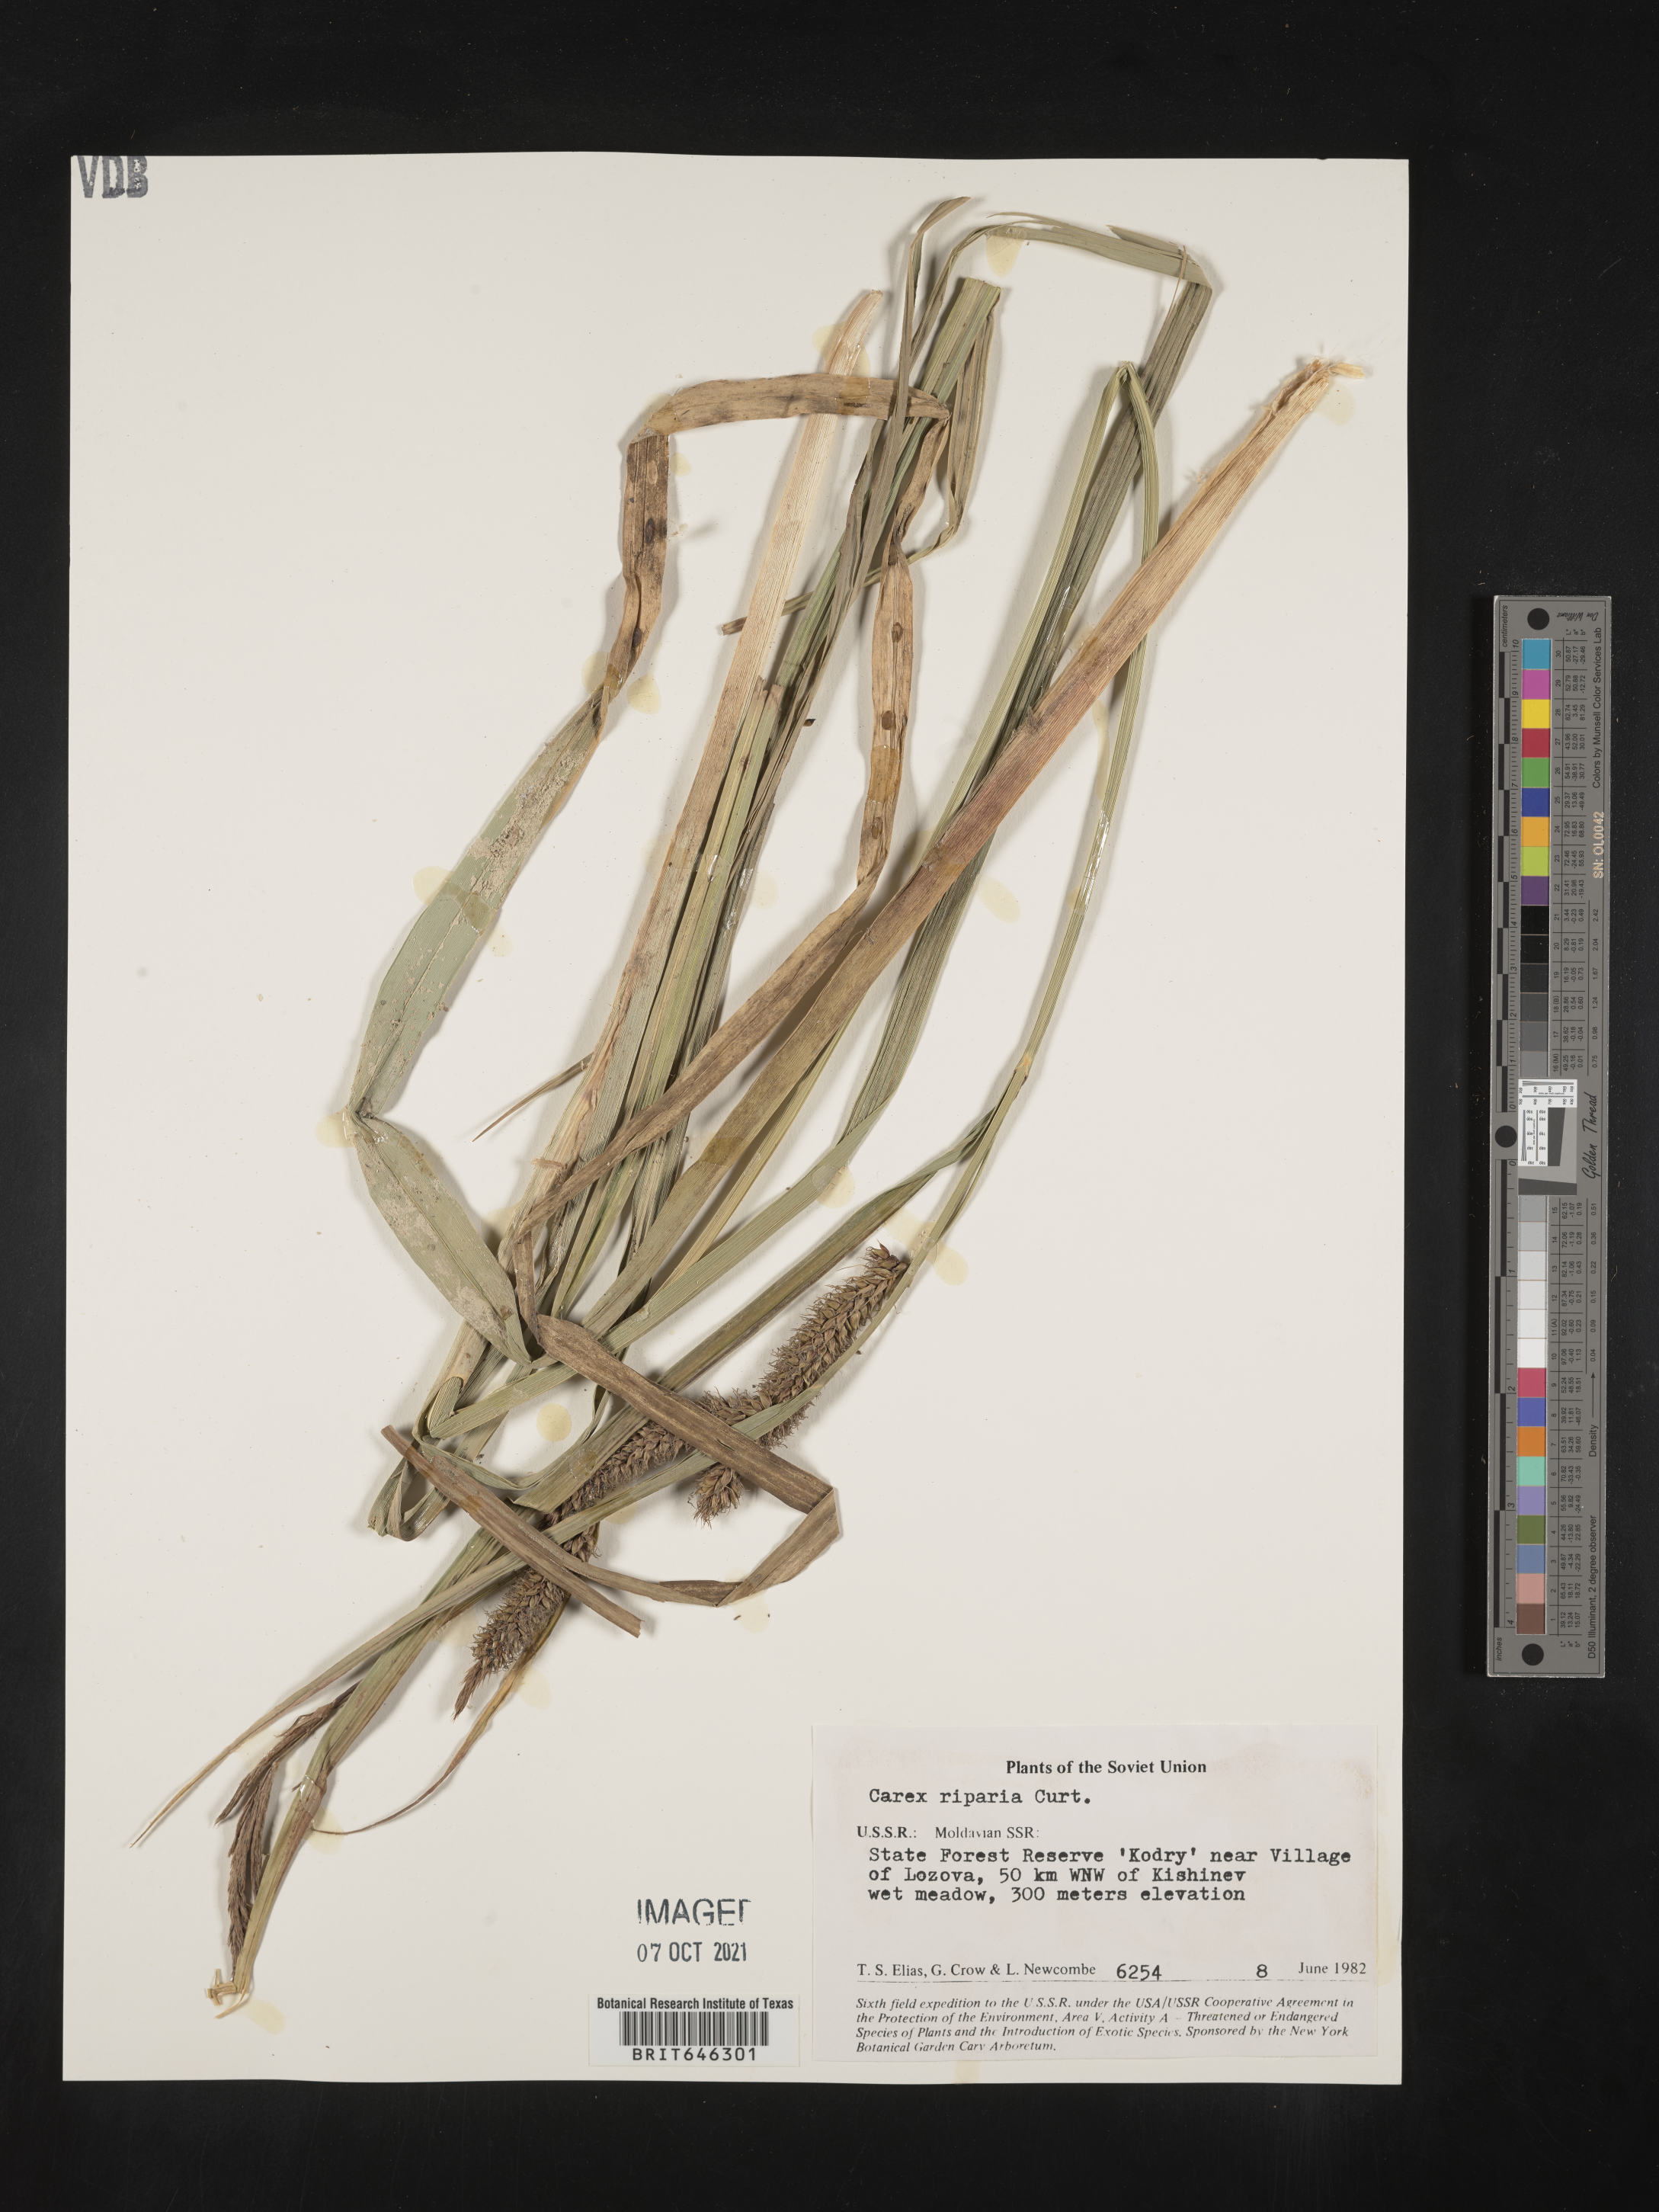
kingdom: Plantae
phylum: Tracheophyta
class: Liliopsida
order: Poales
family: Cyperaceae
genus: Carex
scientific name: Carex umbricola
